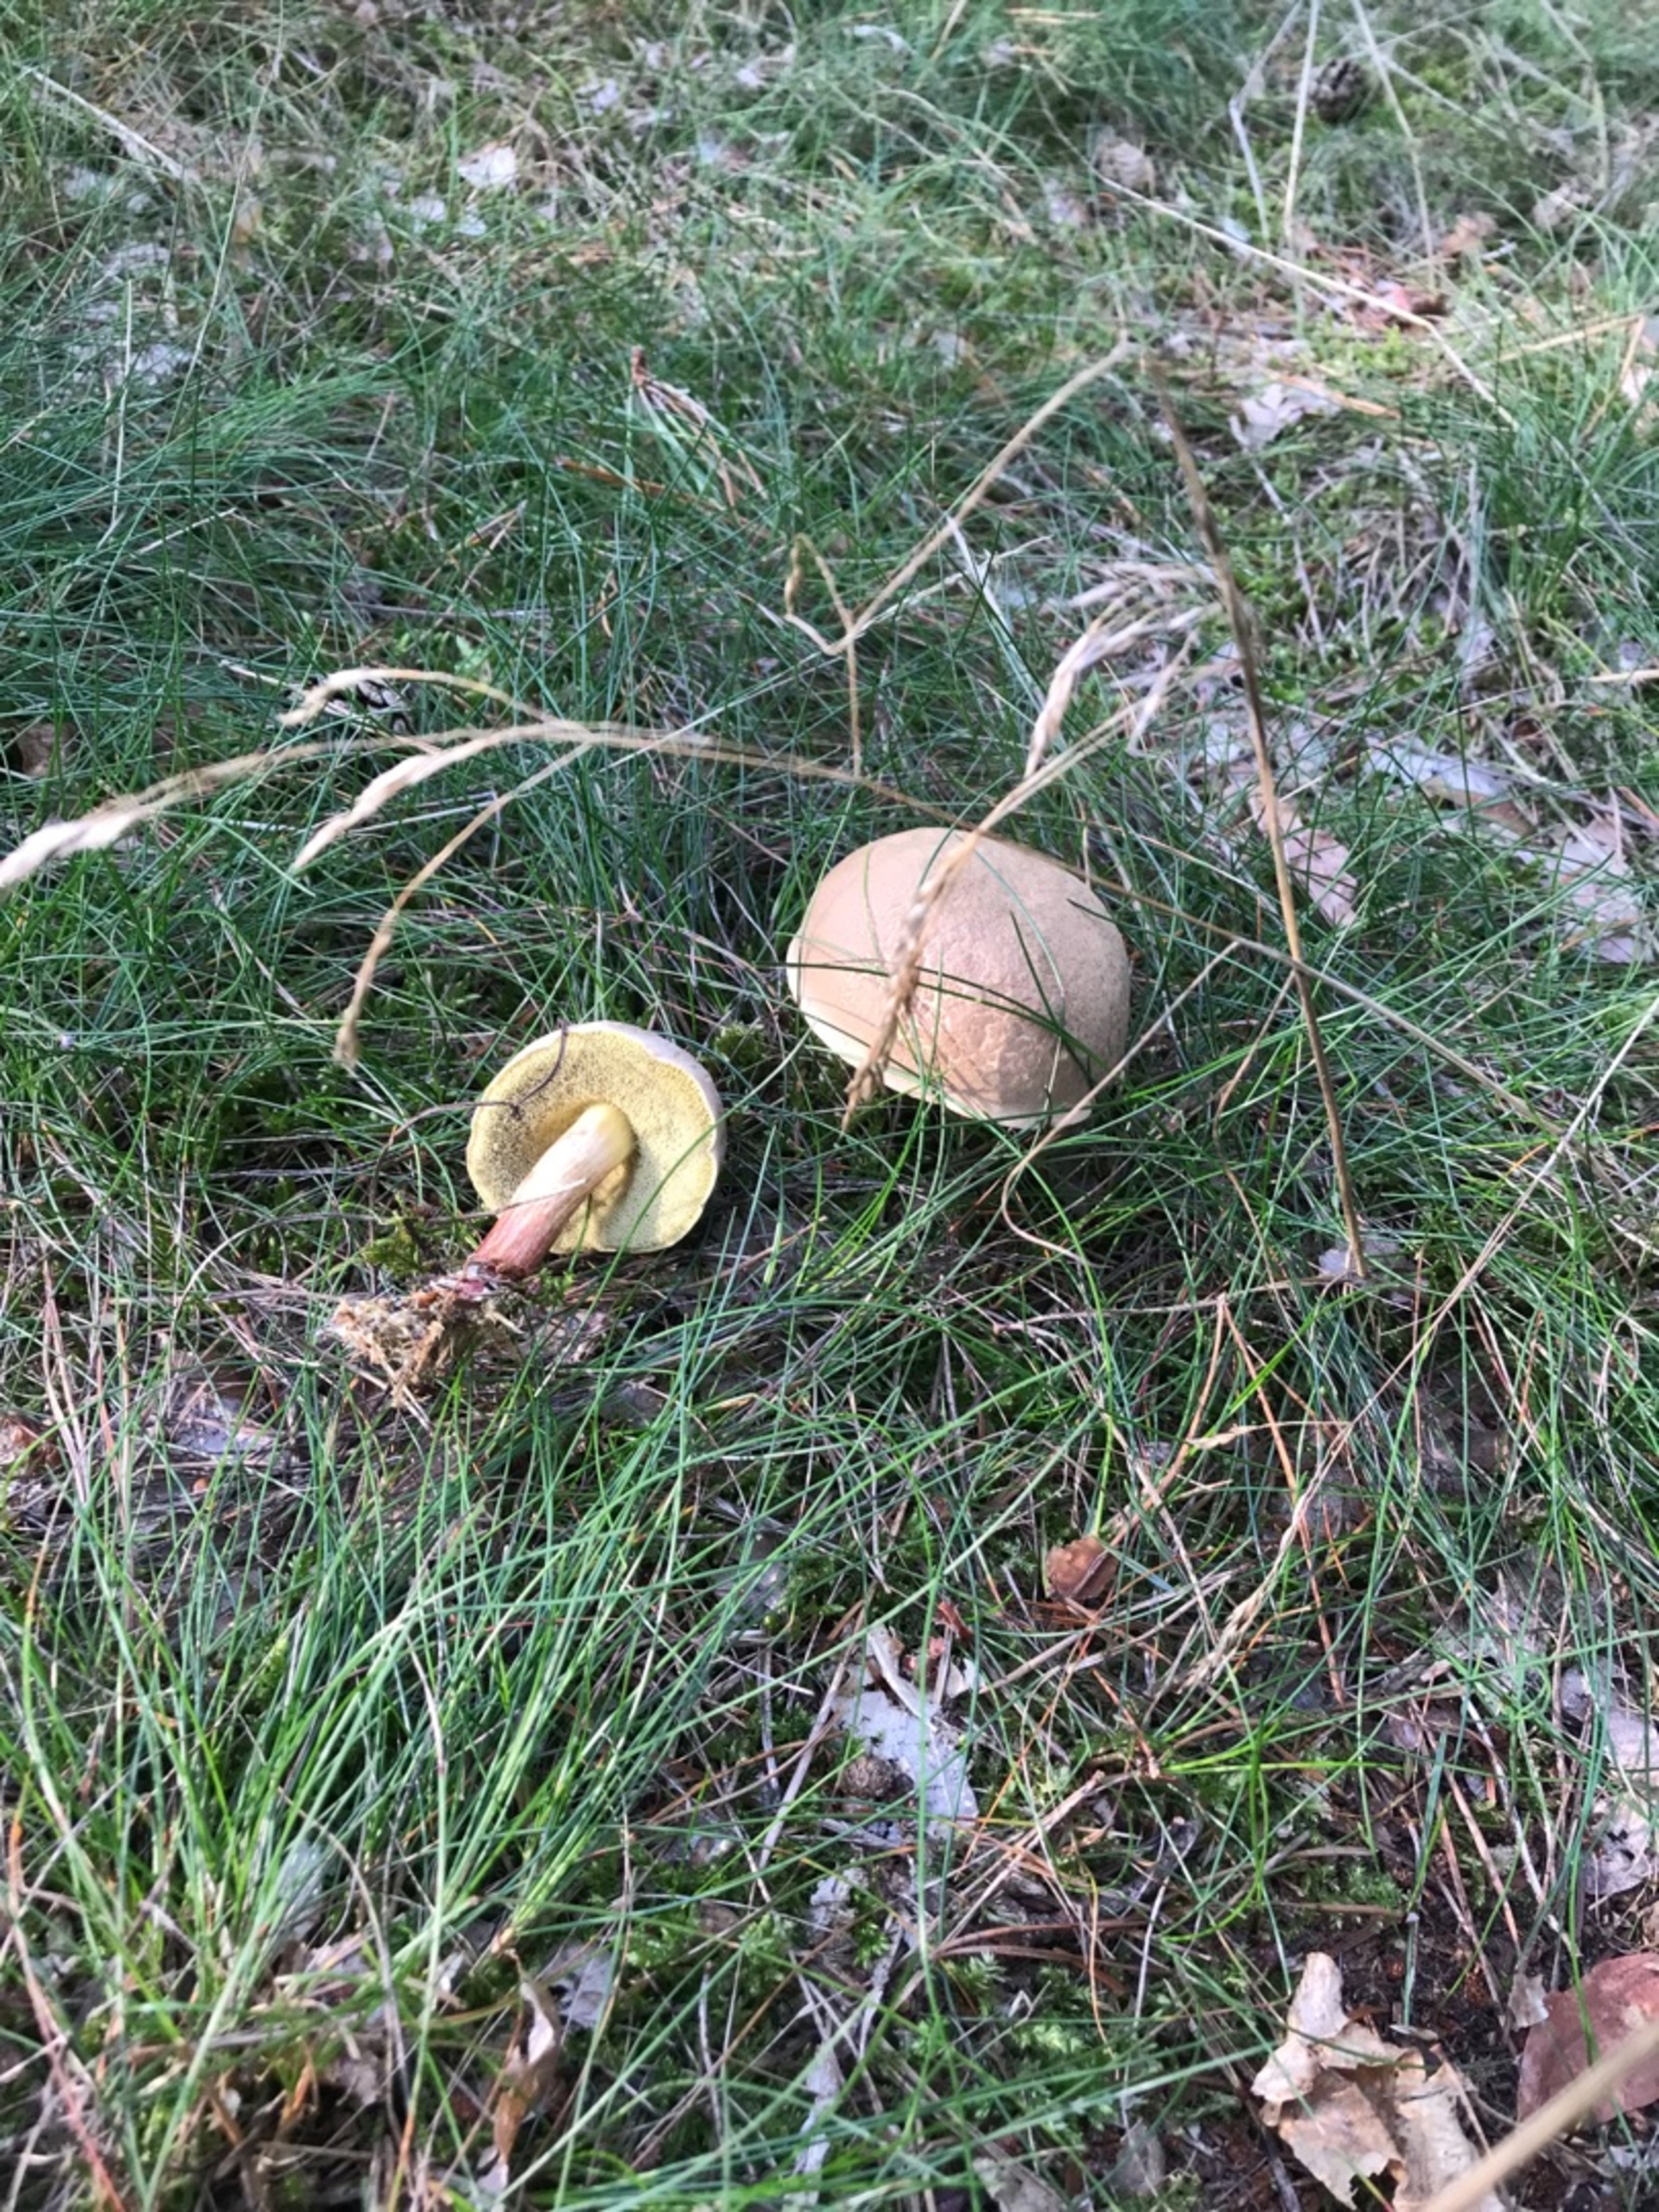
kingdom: Fungi
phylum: Basidiomycota
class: Agaricomycetes
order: Boletales
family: Boletaceae
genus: Xerocomellus
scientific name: Xerocomellus
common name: Dværgrørhat
